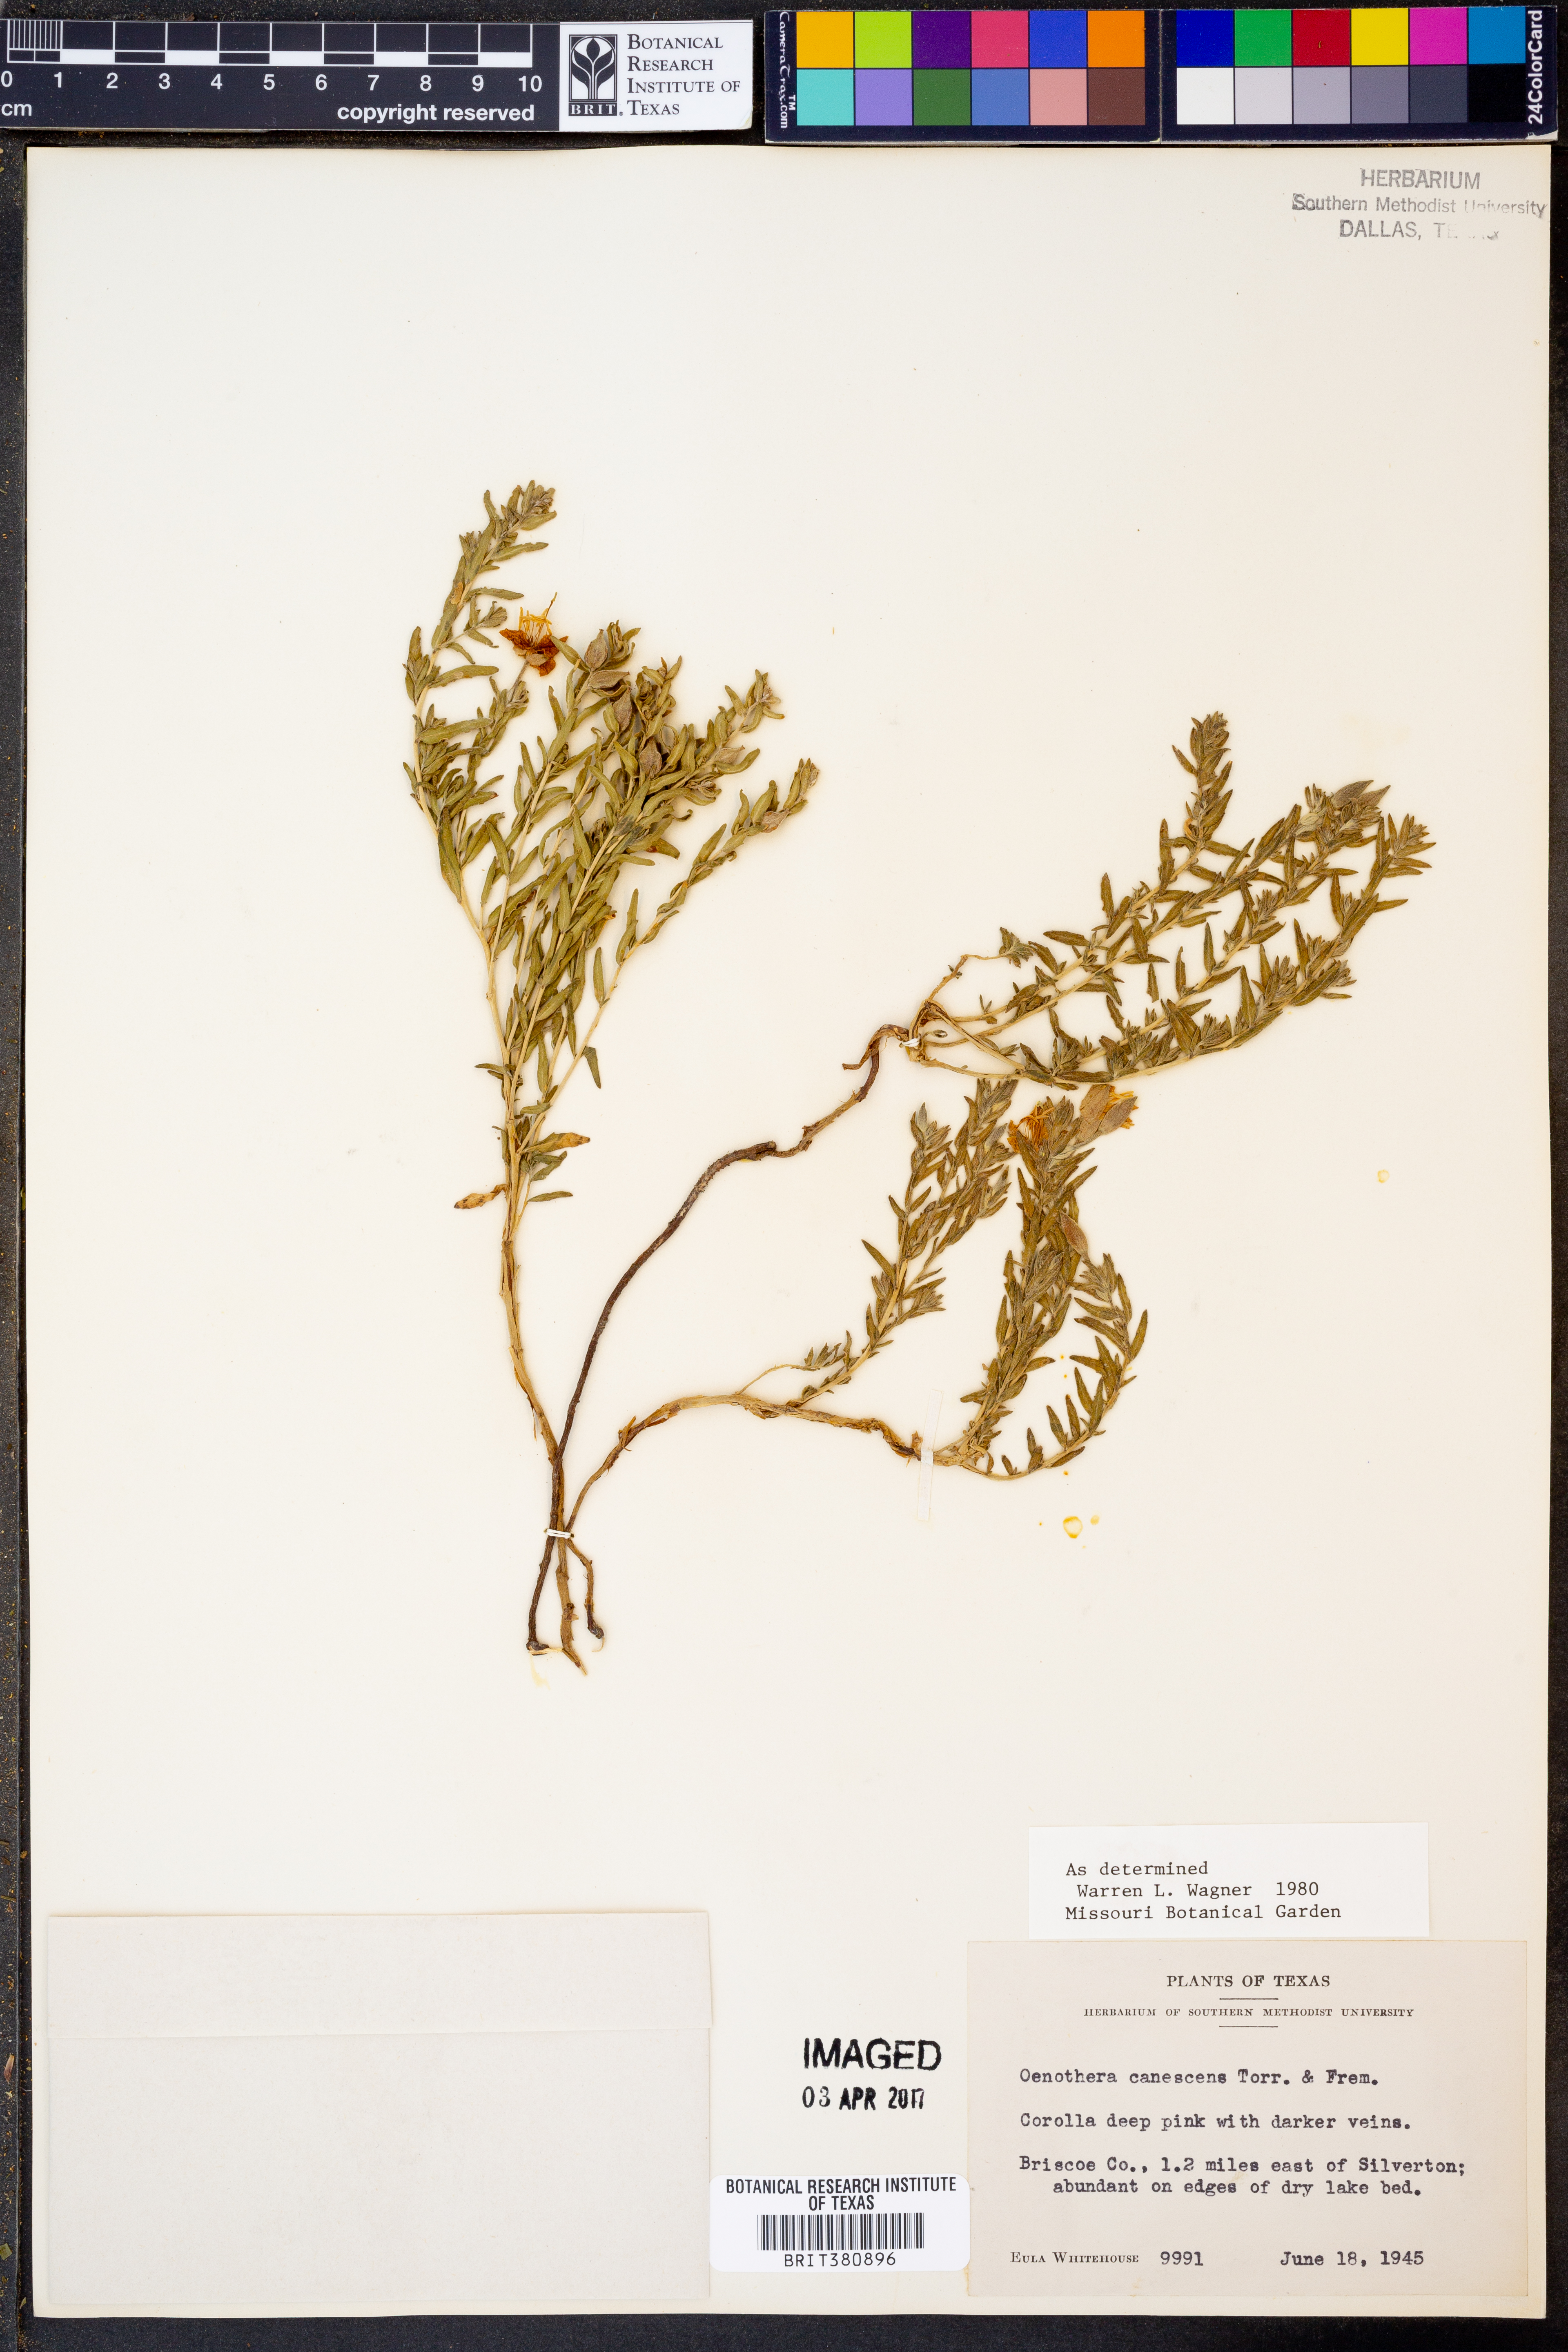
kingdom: Plantae
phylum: Tracheophyta
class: Magnoliopsida
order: Myrtales
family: Onagraceae
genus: Oenothera
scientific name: Oenothera canescens
